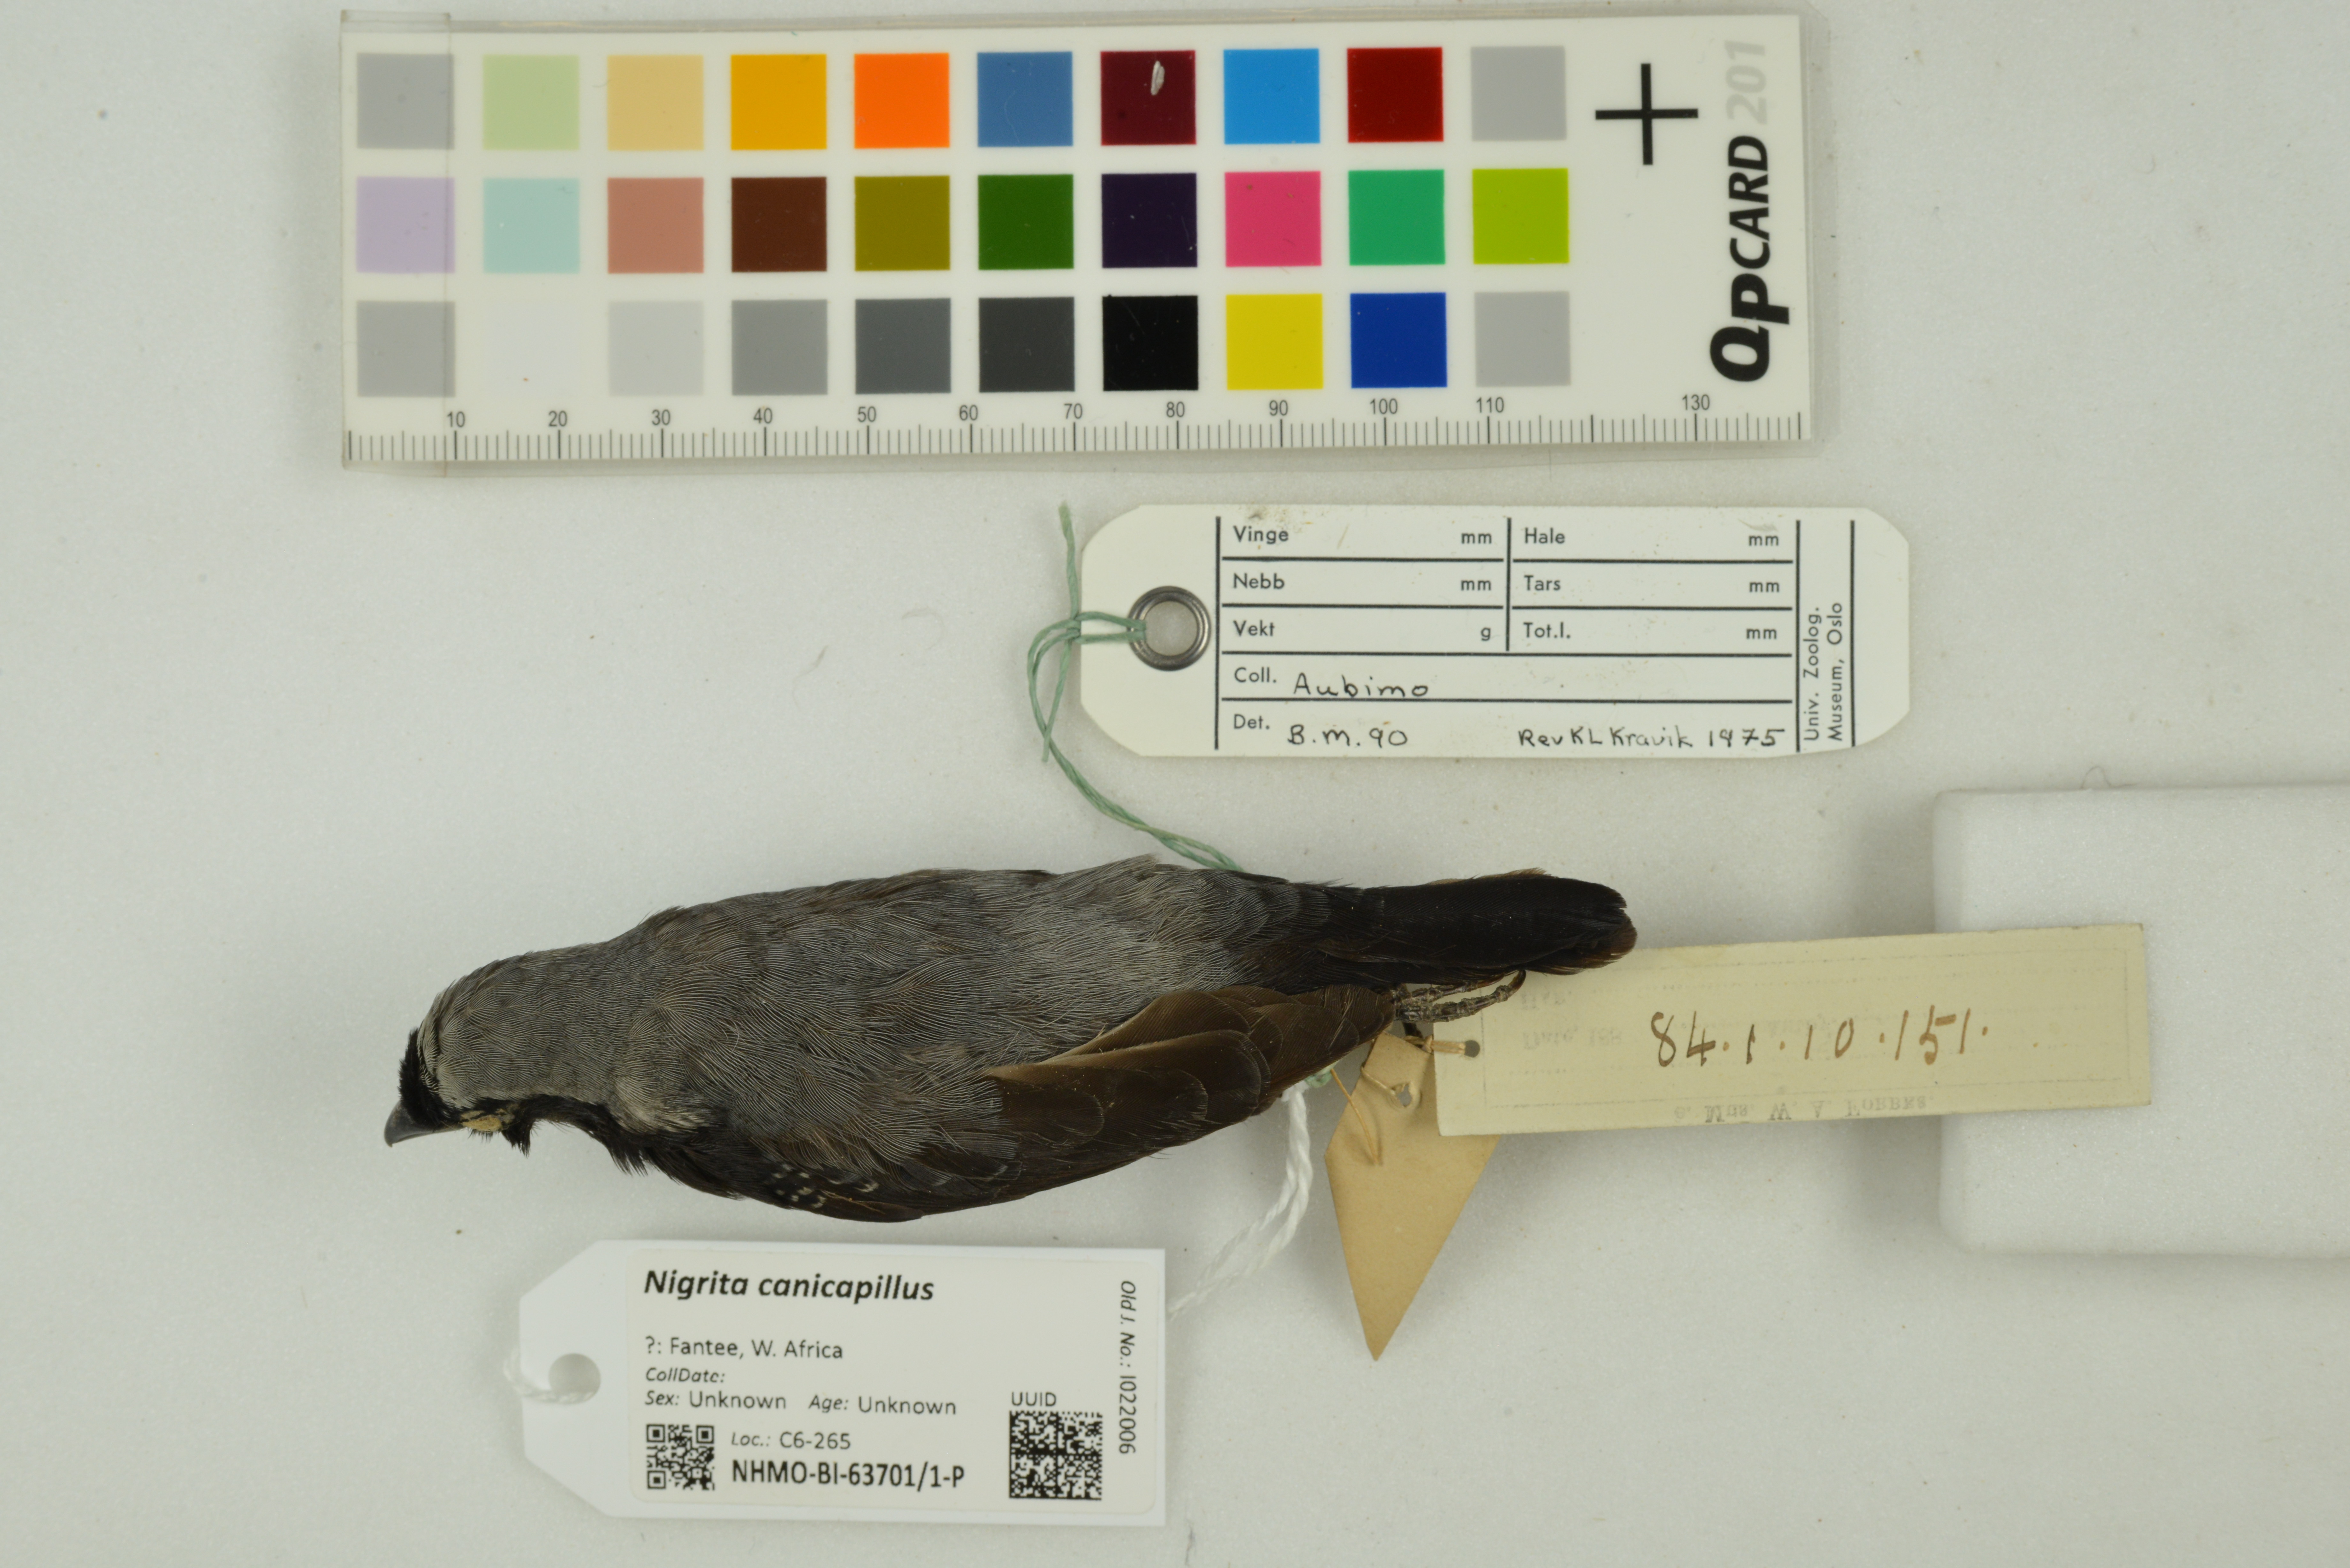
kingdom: Animalia
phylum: Chordata
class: Aves
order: Passeriformes
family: Estrildidae
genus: Nigrita
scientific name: Nigrita canicapillus
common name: Grey-headed nigrita
